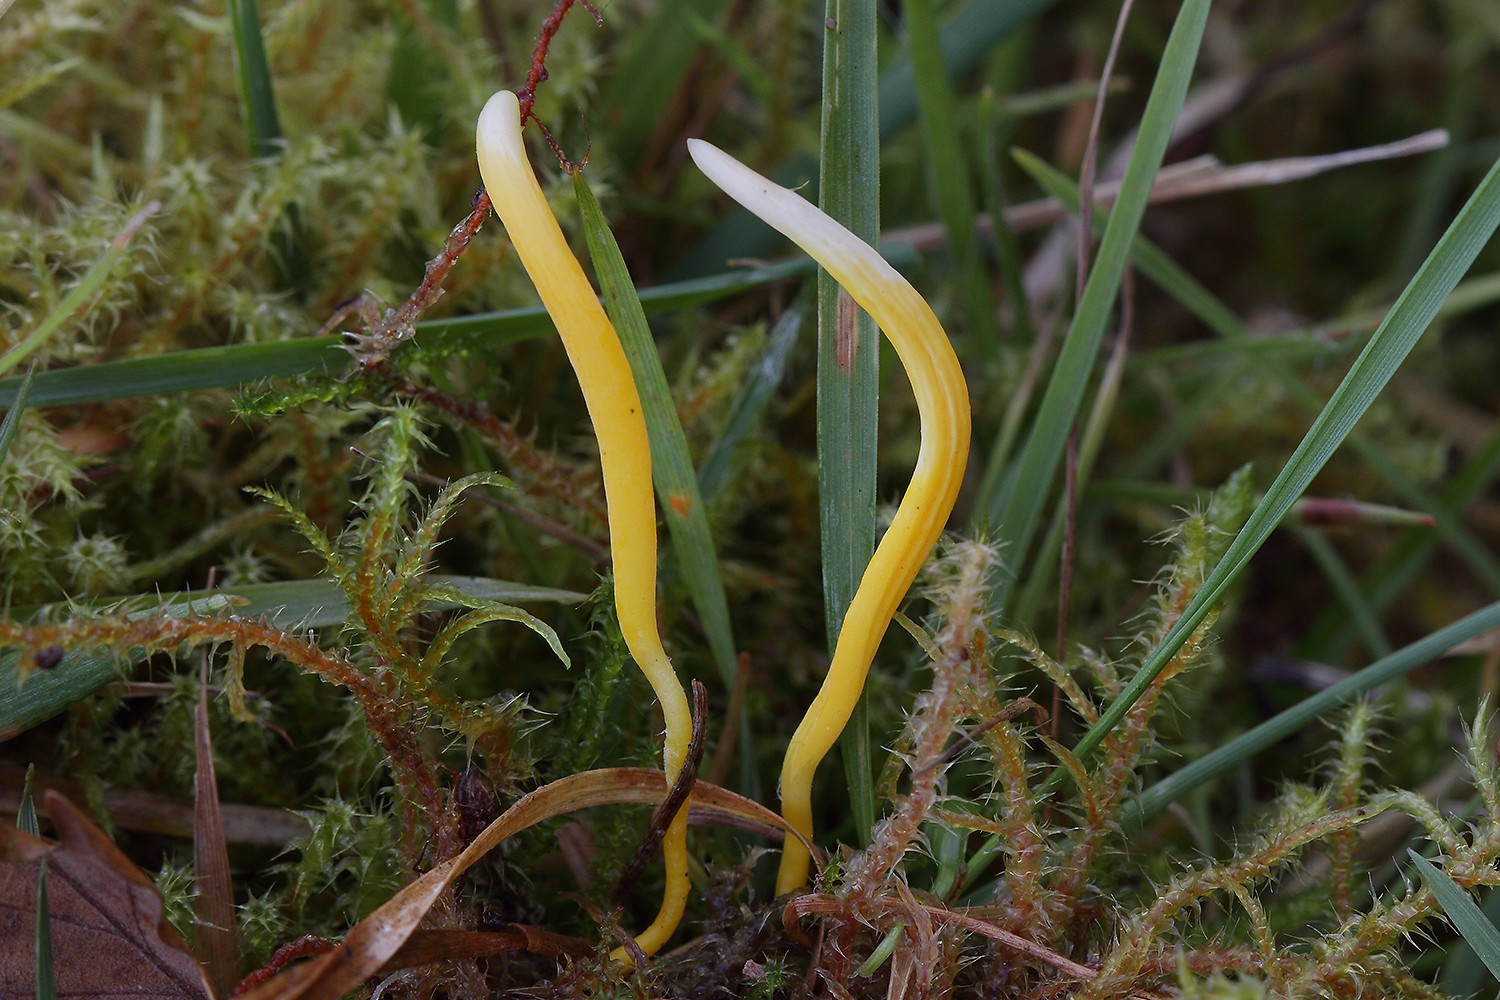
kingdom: Fungi
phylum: Basidiomycota
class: Agaricomycetes
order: Agaricales
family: Clavariaceae
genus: Clavulinopsis
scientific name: Clavulinopsis helvola
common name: orangegul køllesvamp
